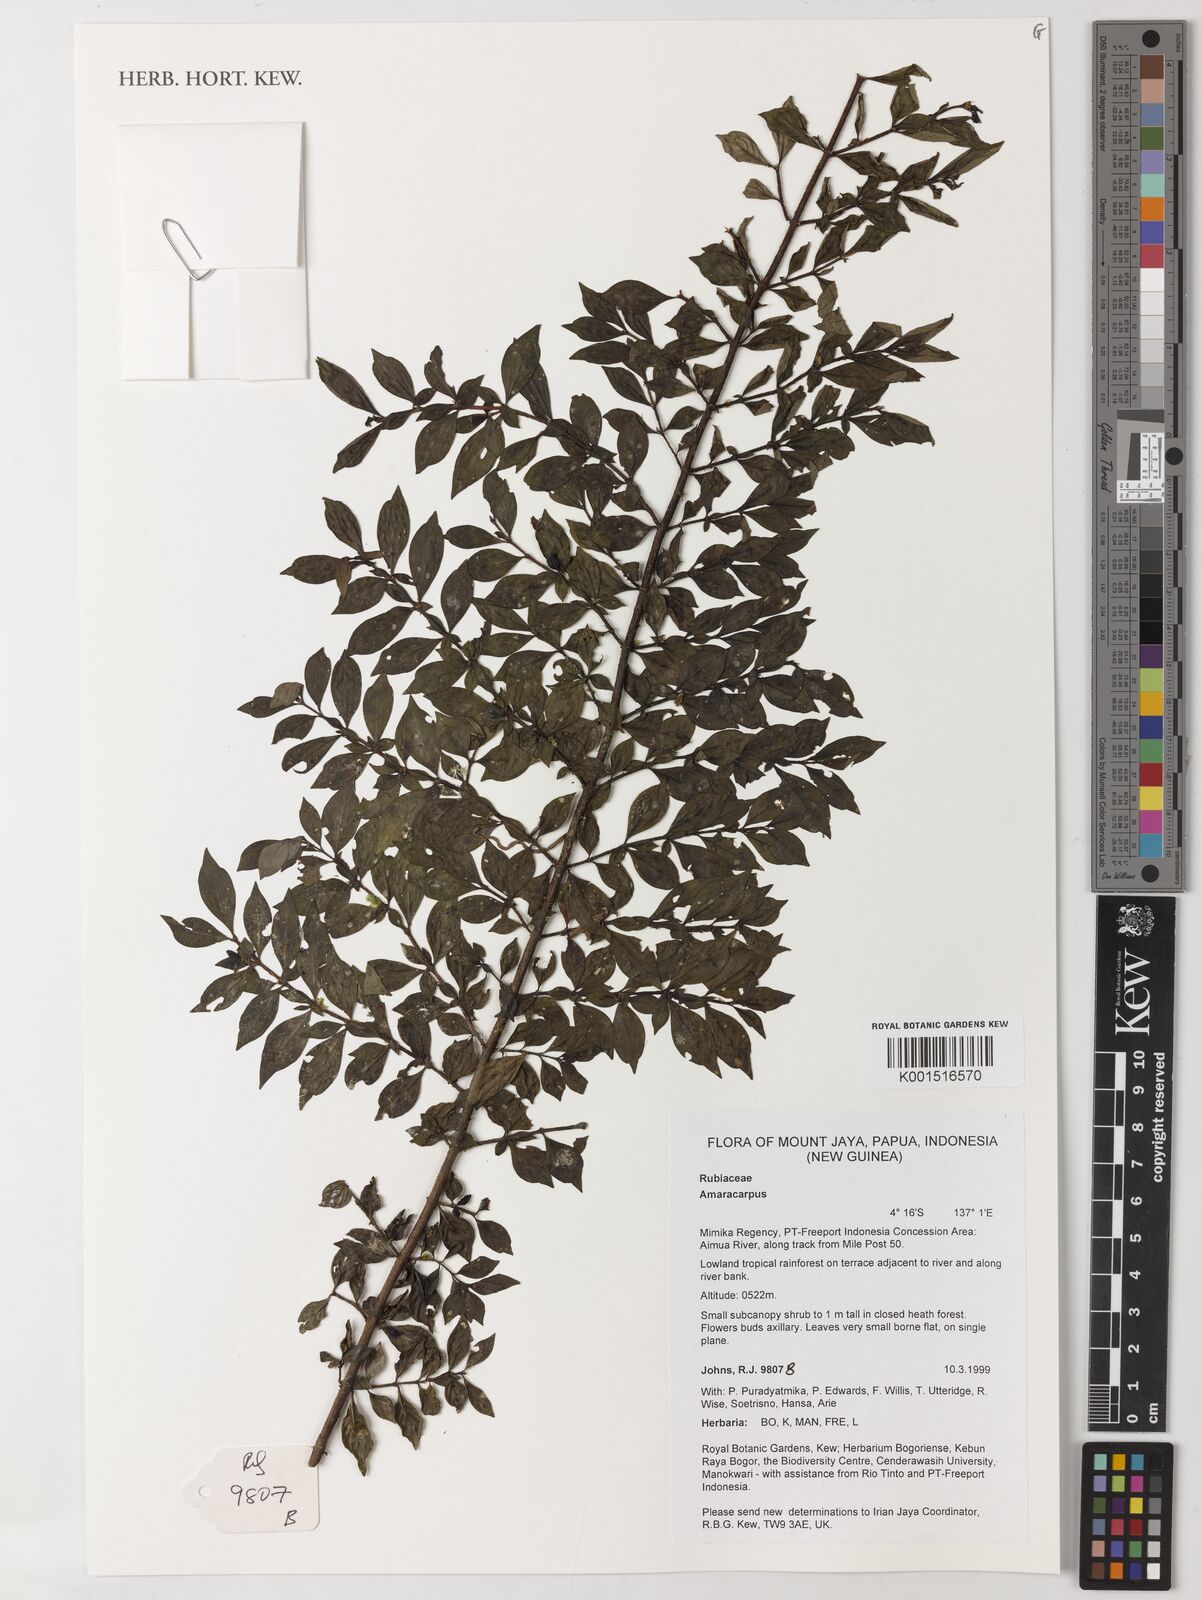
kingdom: Plantae
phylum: Tracheophyta
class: Magnoliopsida
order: Gentianales
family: Rubiaceae
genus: Amaracarpus
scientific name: Amaracarpus
